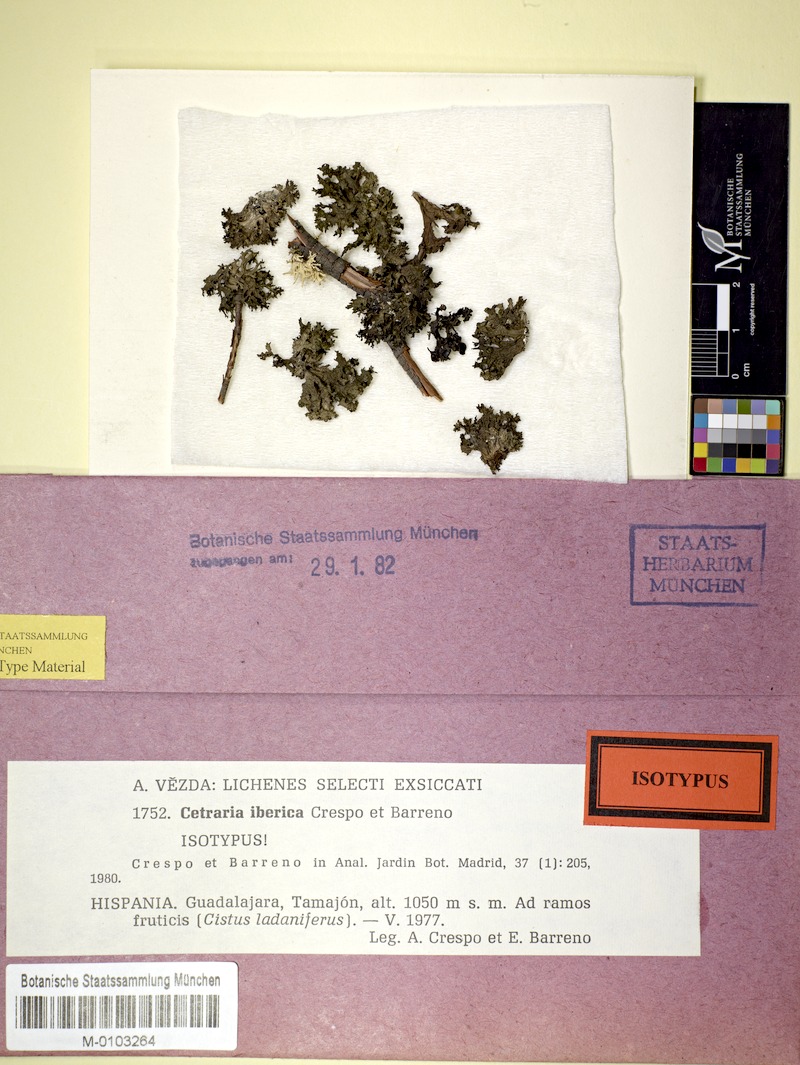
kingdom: Fungi
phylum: Ascomycota
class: Lecanoromycetes
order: Lecanorales
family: Parmeliaceae
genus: Nephromopsis
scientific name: Nephromopsis iberica
